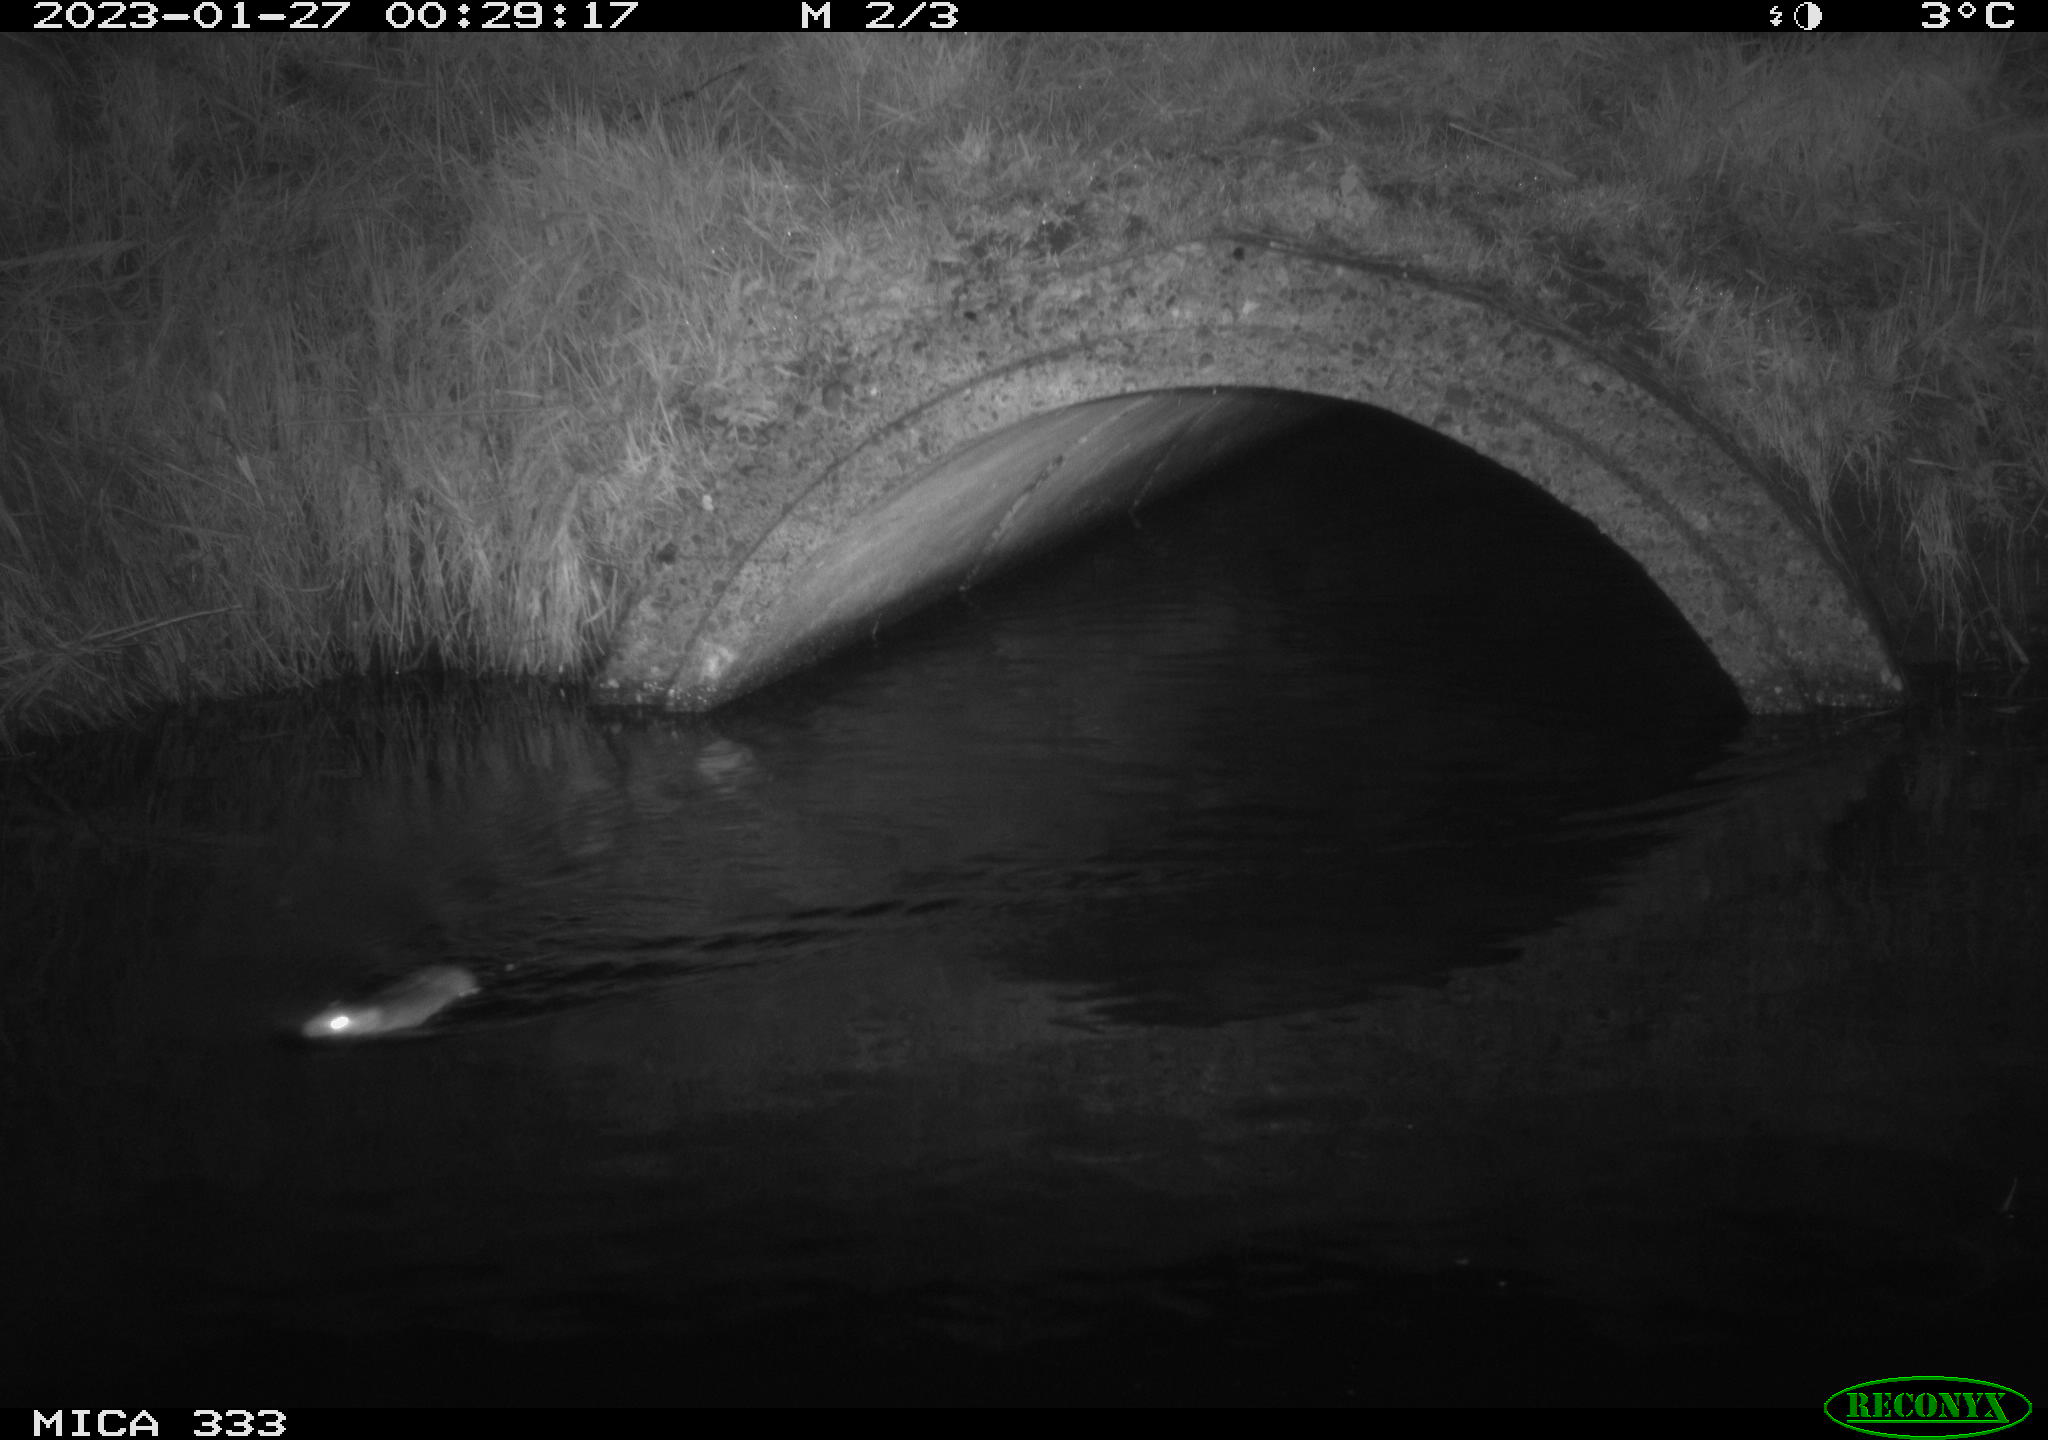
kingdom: Animalia
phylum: Chordata
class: Mammalia
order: Rodentia
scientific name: Rodentia
